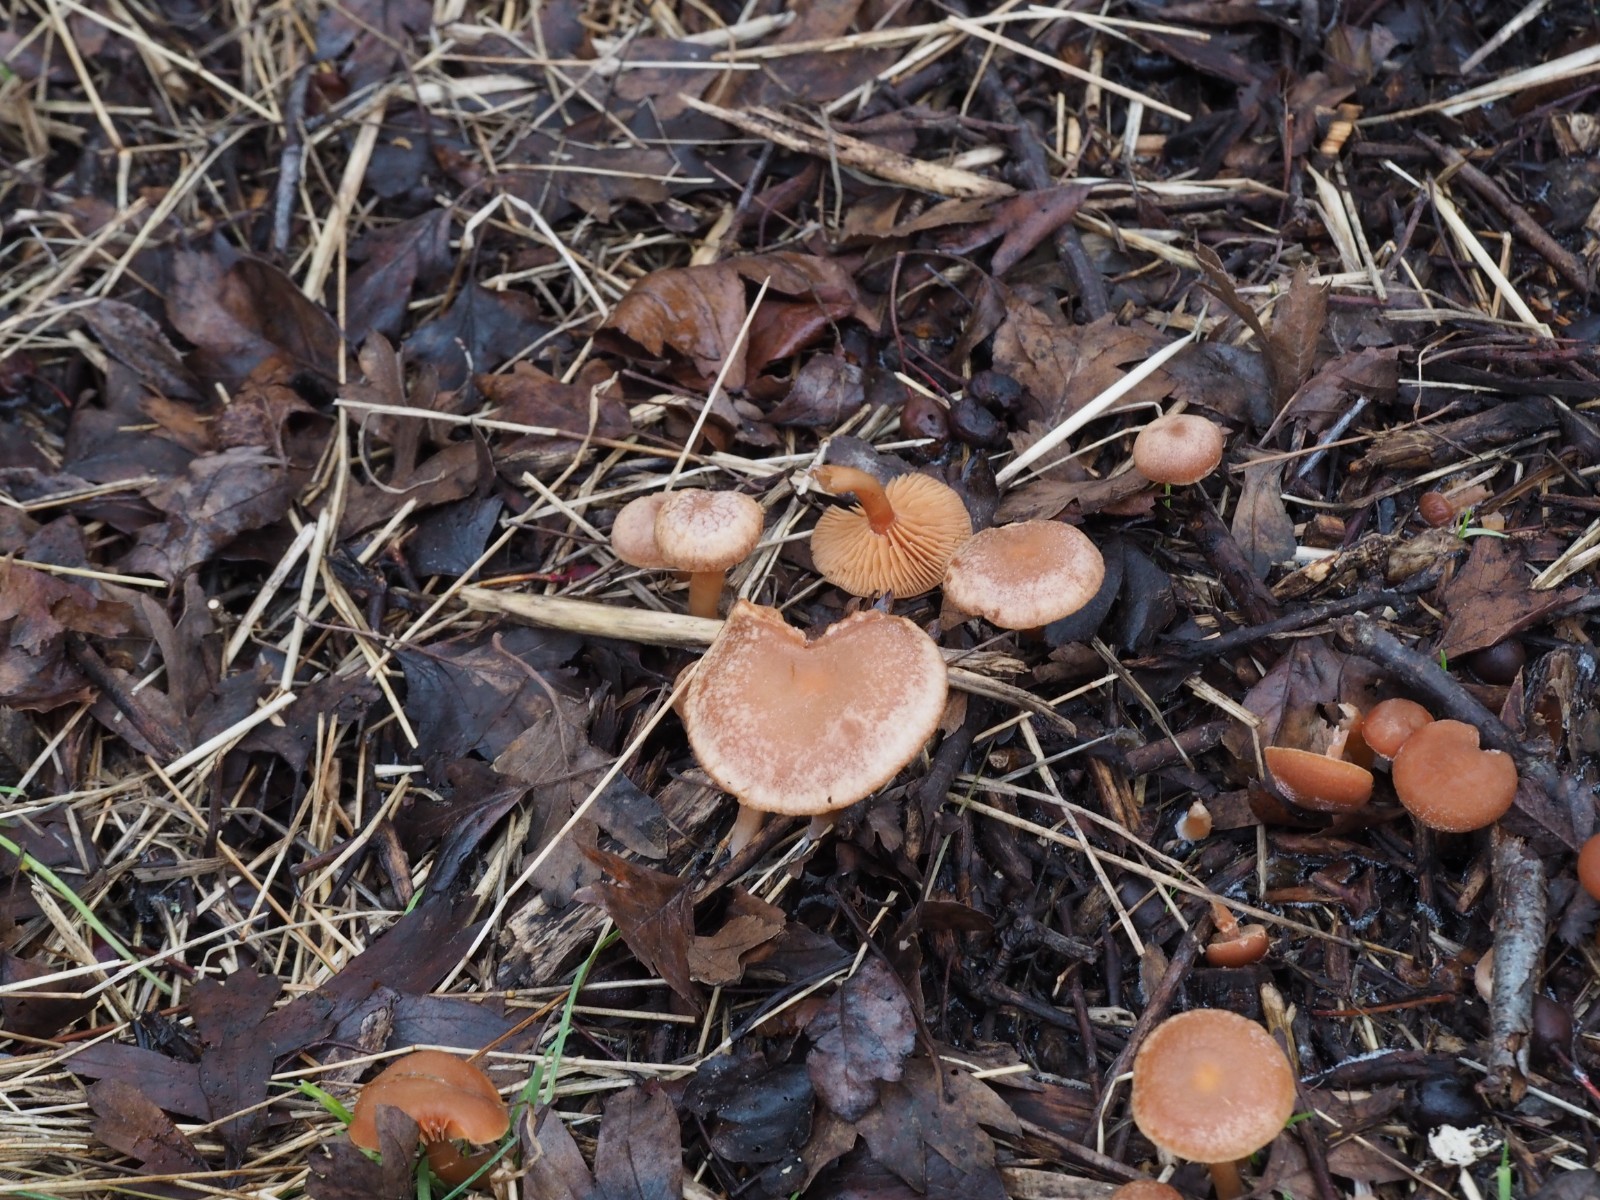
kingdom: Fungi
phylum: Basidiomycota
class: Agaricomycetes
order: Agaricales
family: Tubariaceae
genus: Tubaria
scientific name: Tubaria furfuracea
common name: kliddet fnughat
